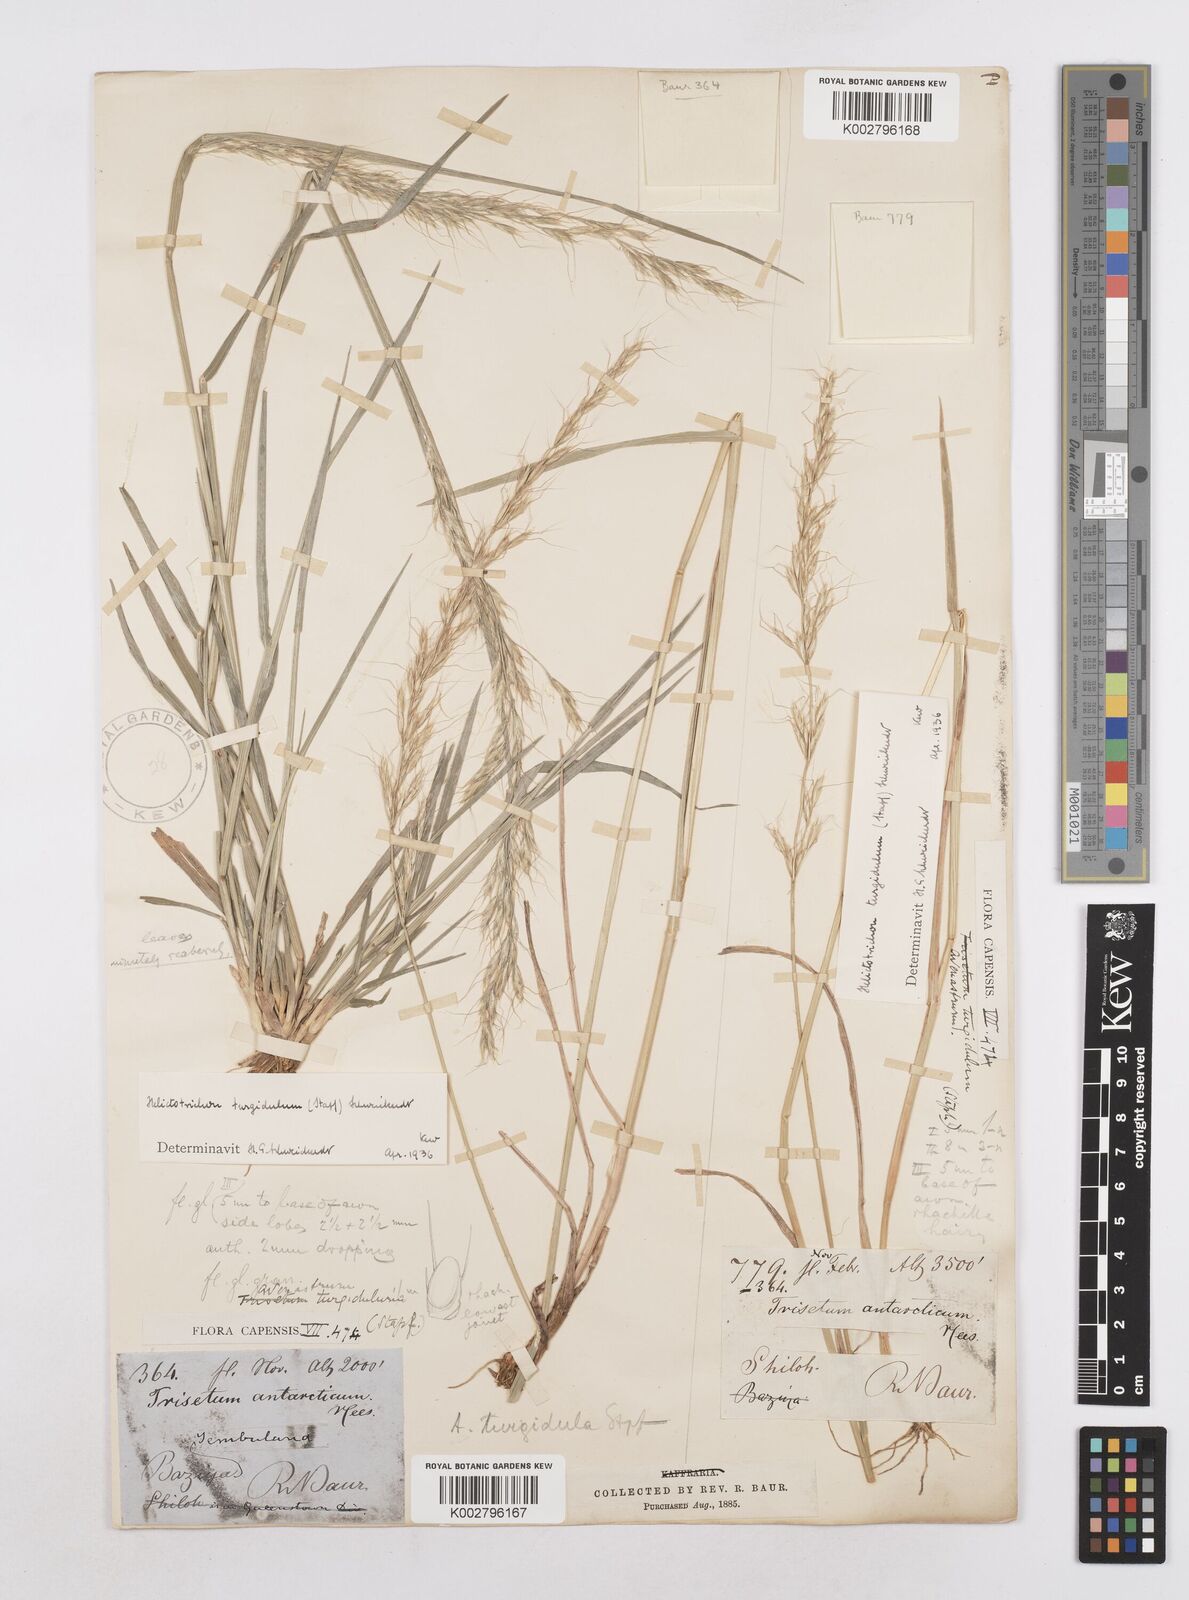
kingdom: Plantae
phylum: Tracheophyta
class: Liliopsida
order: Poales
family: Poaceae
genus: Trisetopsis
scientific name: Trisetopsis imberbis
